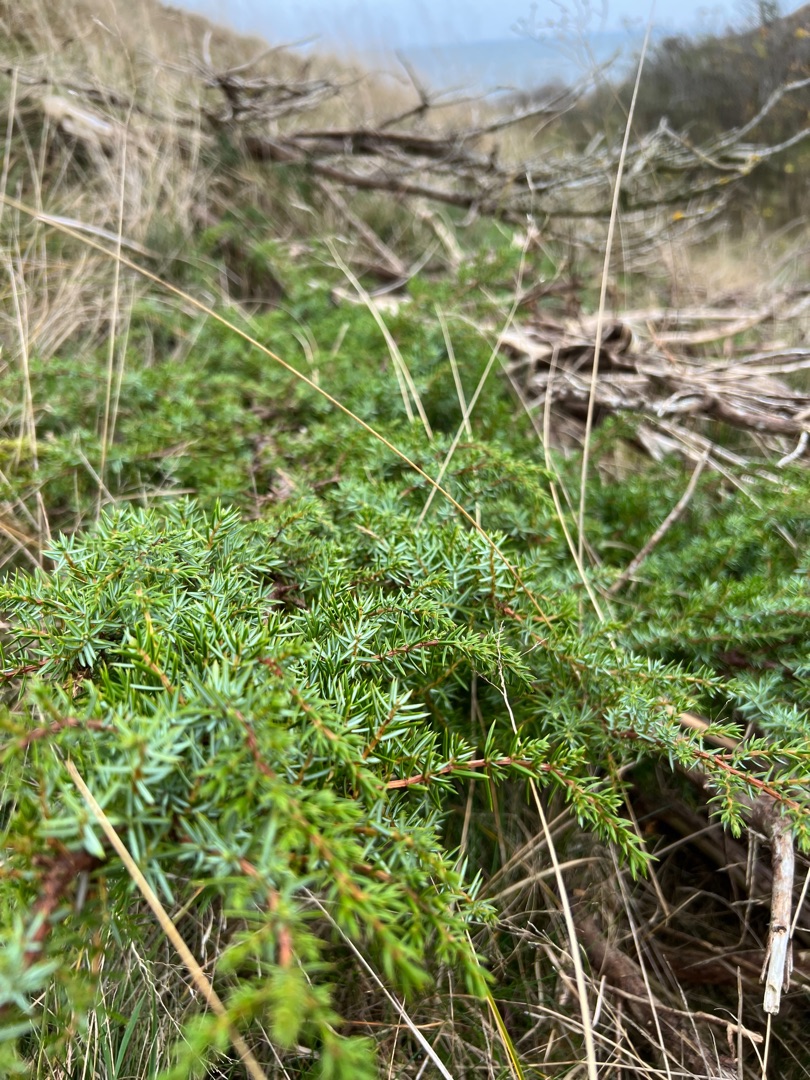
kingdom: Plantae
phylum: Tracheophyta
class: Pinopsida
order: Pinales
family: Cupressaceae
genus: Juniperus
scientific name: Juniperus communis
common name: Almindelig ene
